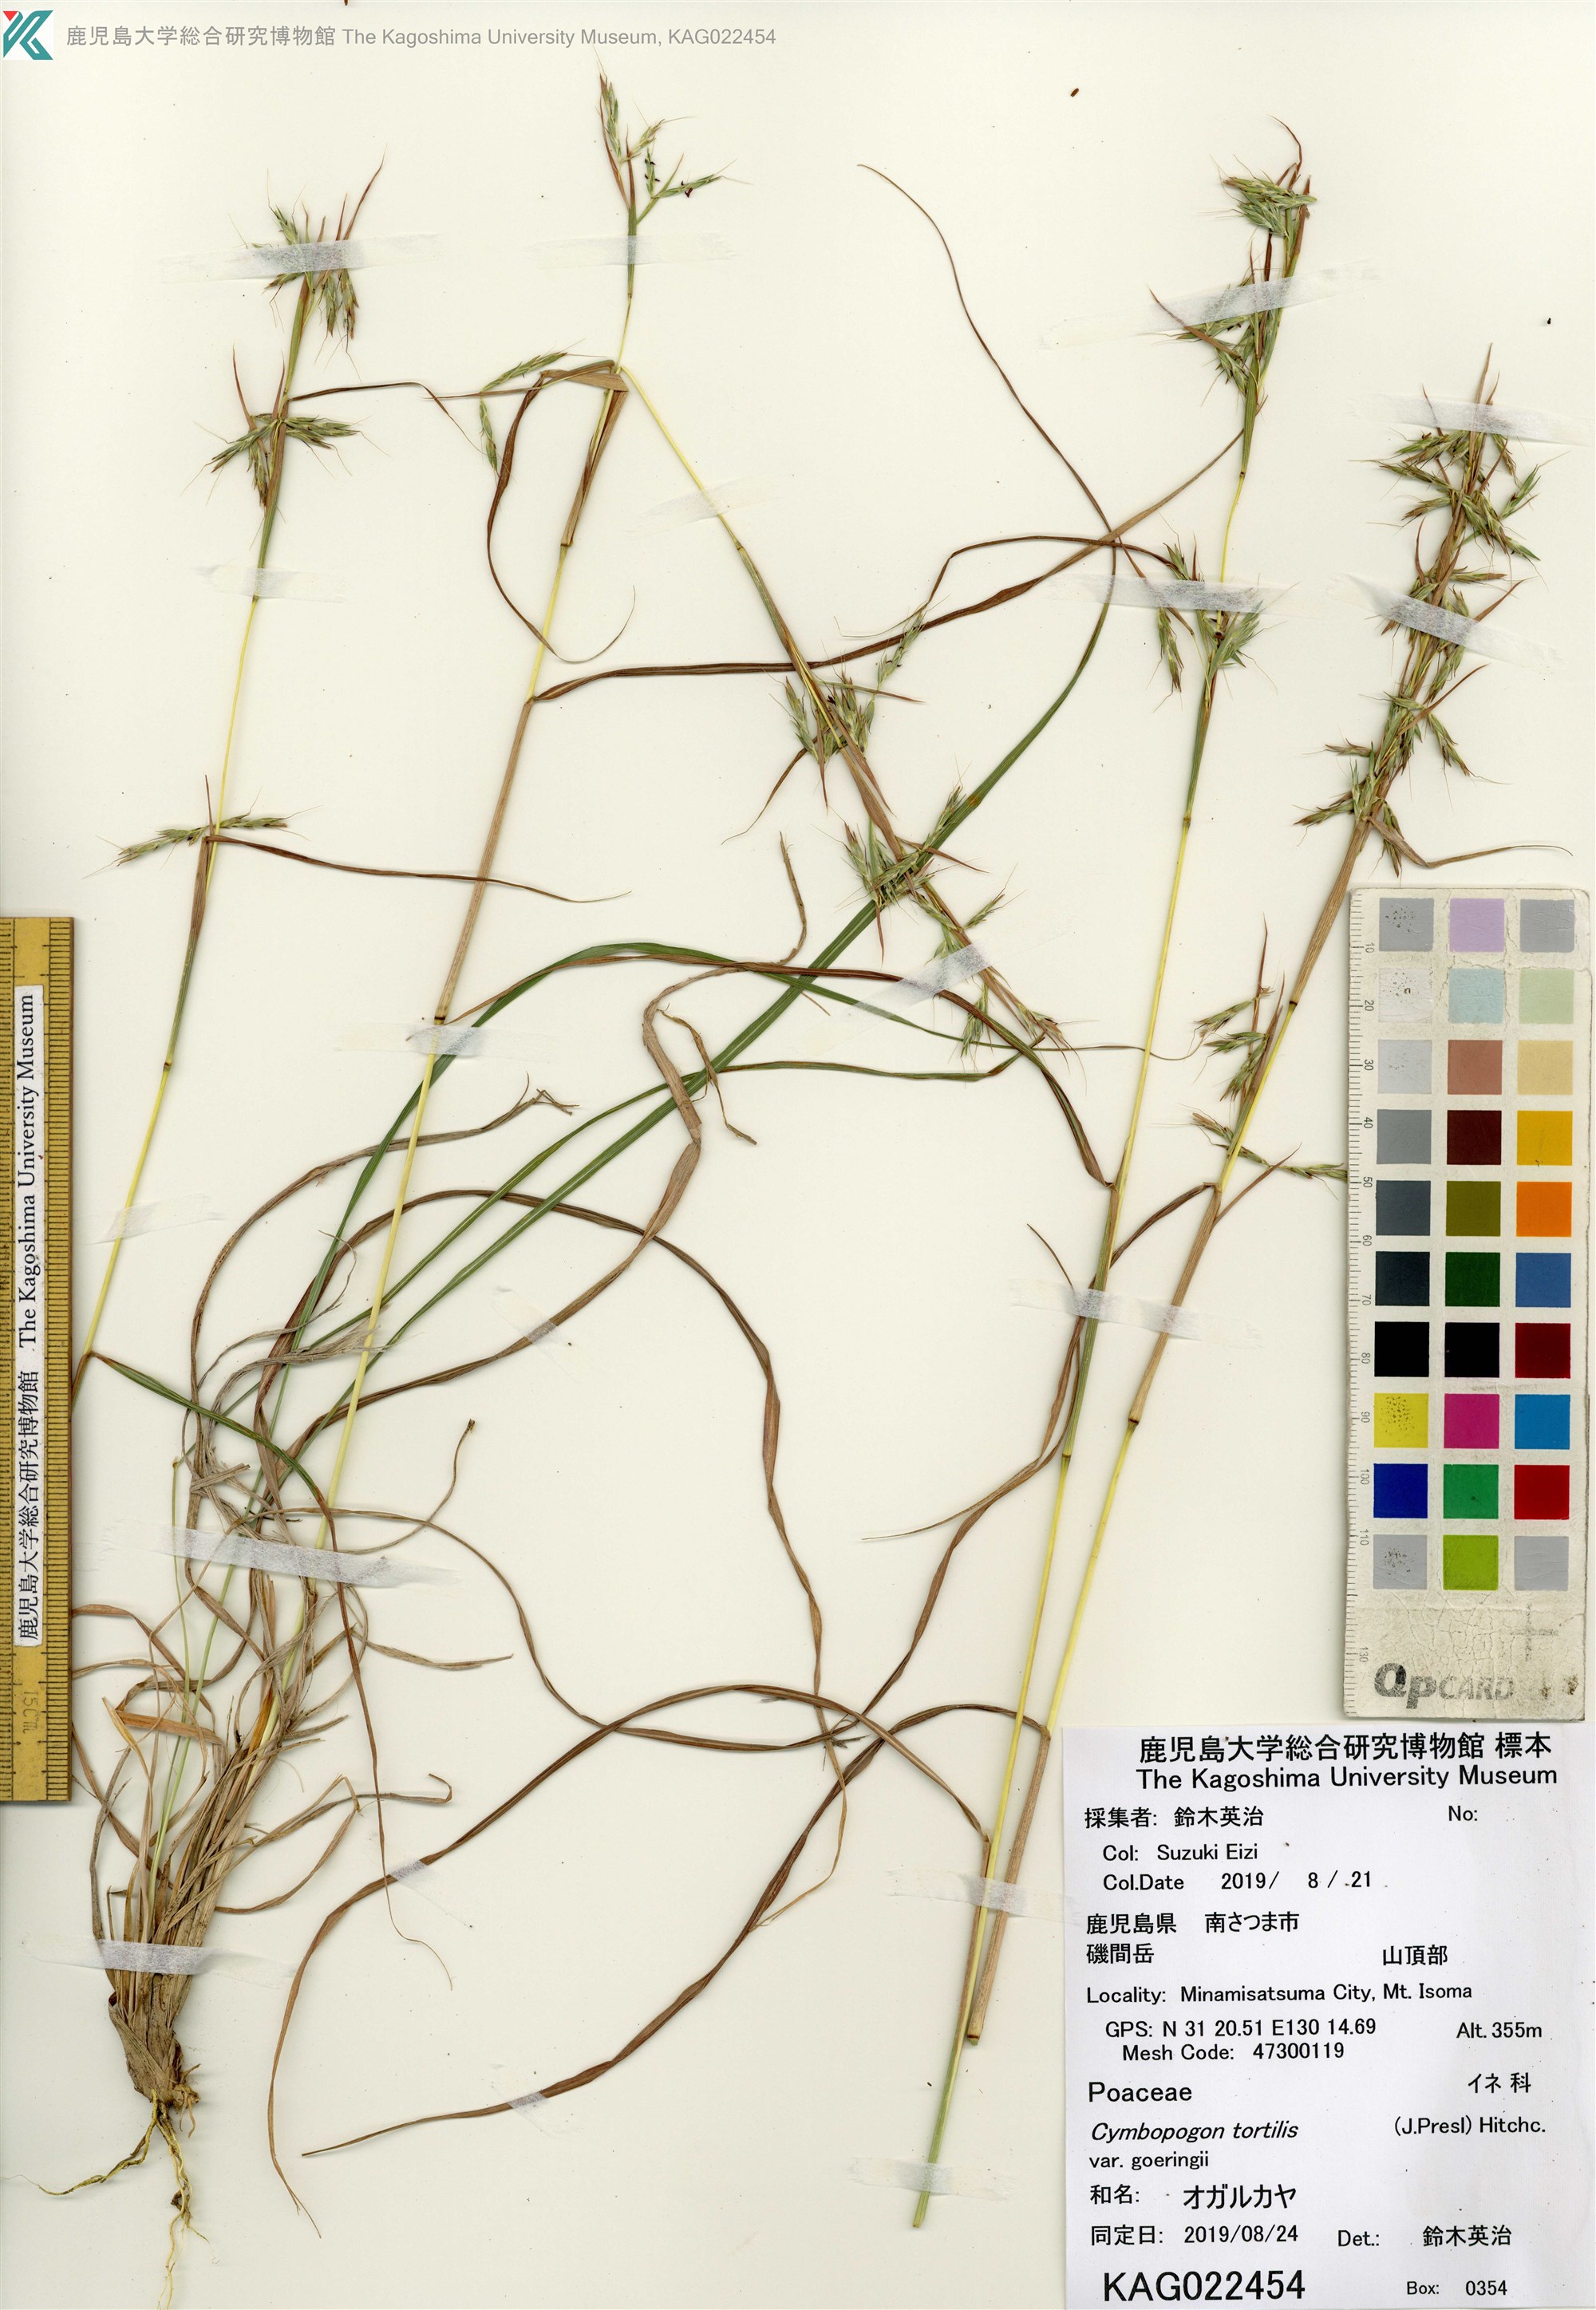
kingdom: Plantae
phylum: Tracheophyta
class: Liliopsida
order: Poales
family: Poaceae
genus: Cymbopogon
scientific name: Cymbopogon goeringii
